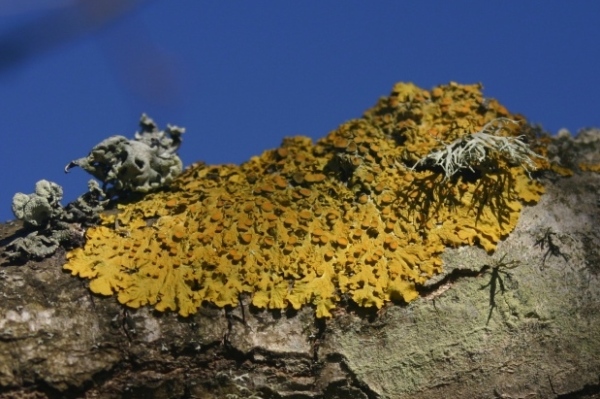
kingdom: Fungi
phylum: Ascomycota
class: Lecanoromycetes
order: Teloschistales
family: Teloschistaceae
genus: Xanthoria
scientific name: Xanthoria parietina
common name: almindelig væggelav
